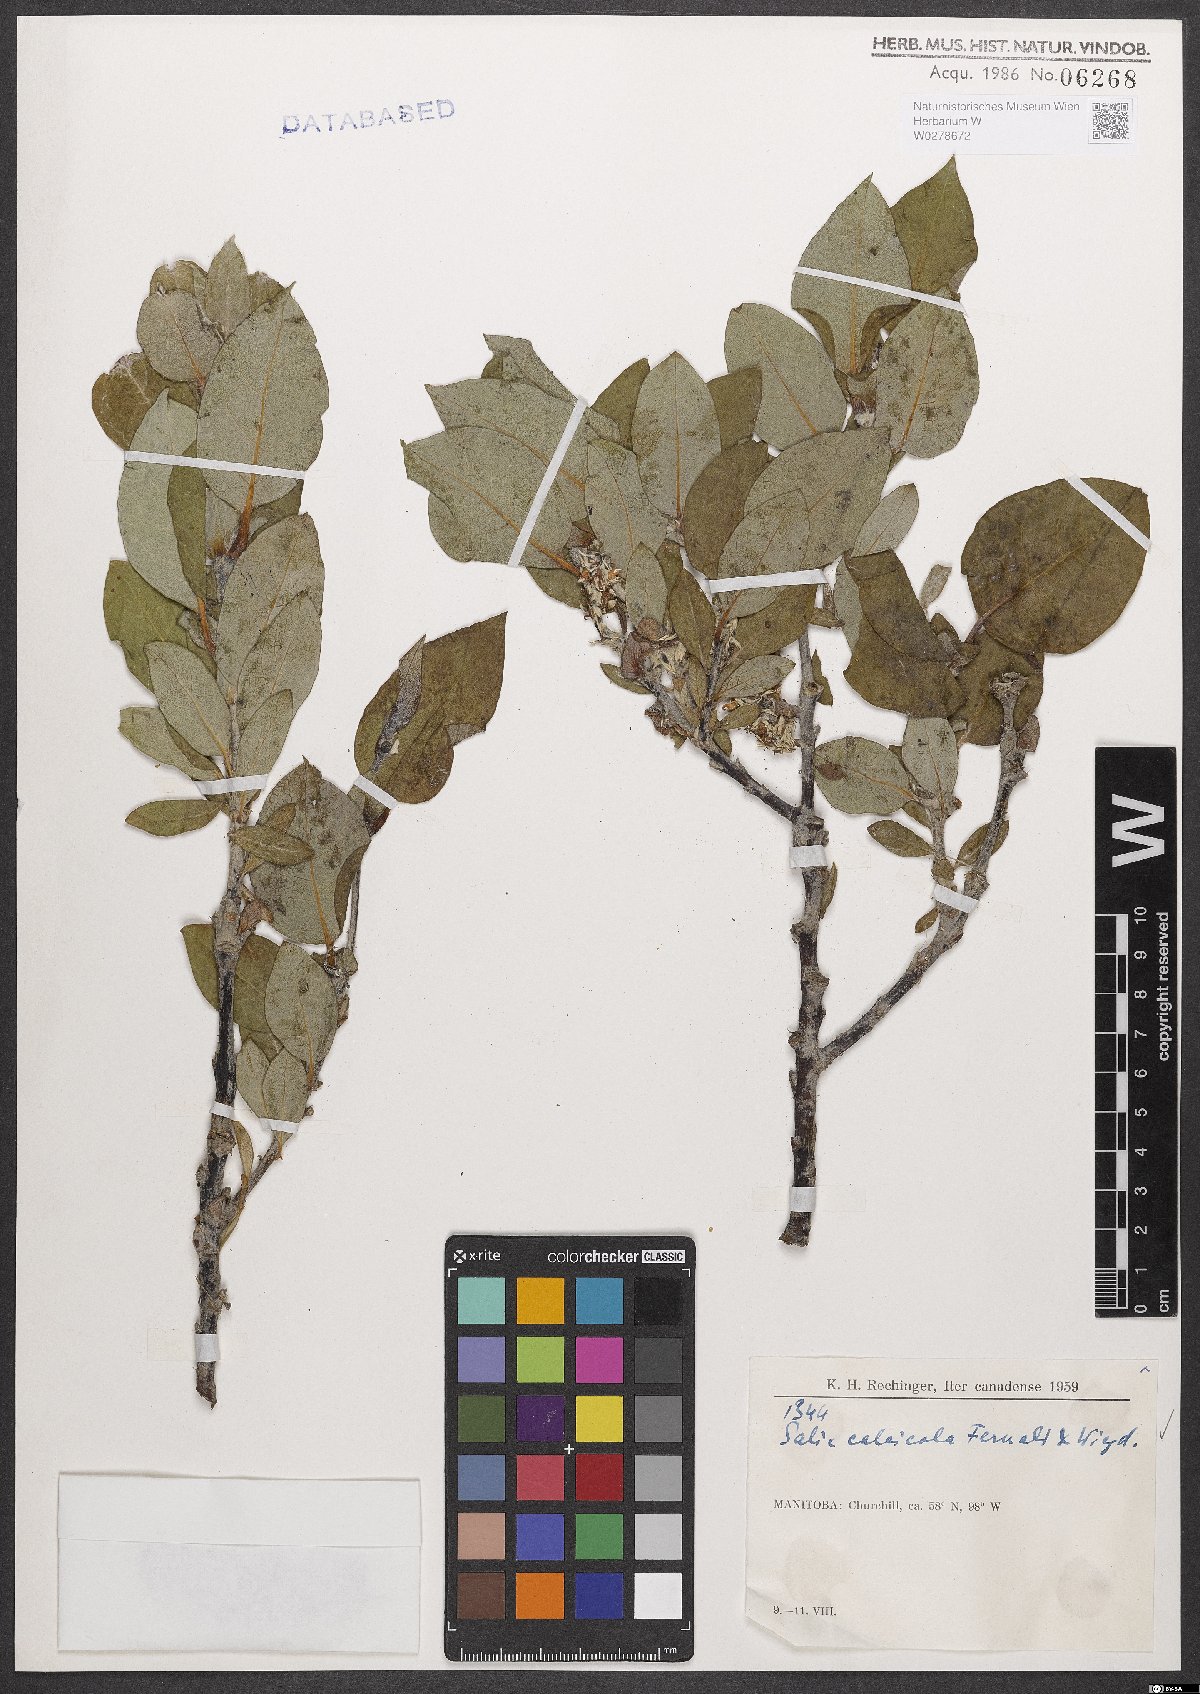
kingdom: Plantae
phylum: Tracheophyta
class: Magnoliopsida
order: Malpighiales
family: Salicaceae
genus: Salix
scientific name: Salix calcicola
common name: Calcareous willow
